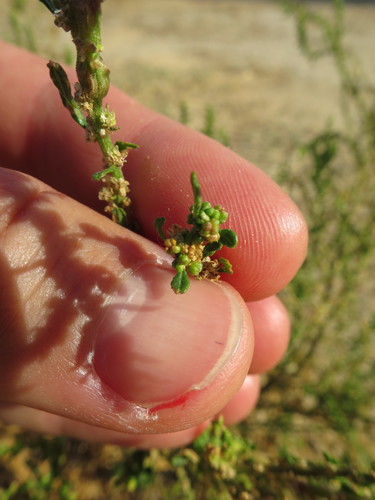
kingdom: Plantae
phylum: Tracheophyta
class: Magnoliopsida
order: Caryophyllales
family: Amaranthaceae
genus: Dysphania
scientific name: Dysphania ambrosioides
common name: Wormseed
